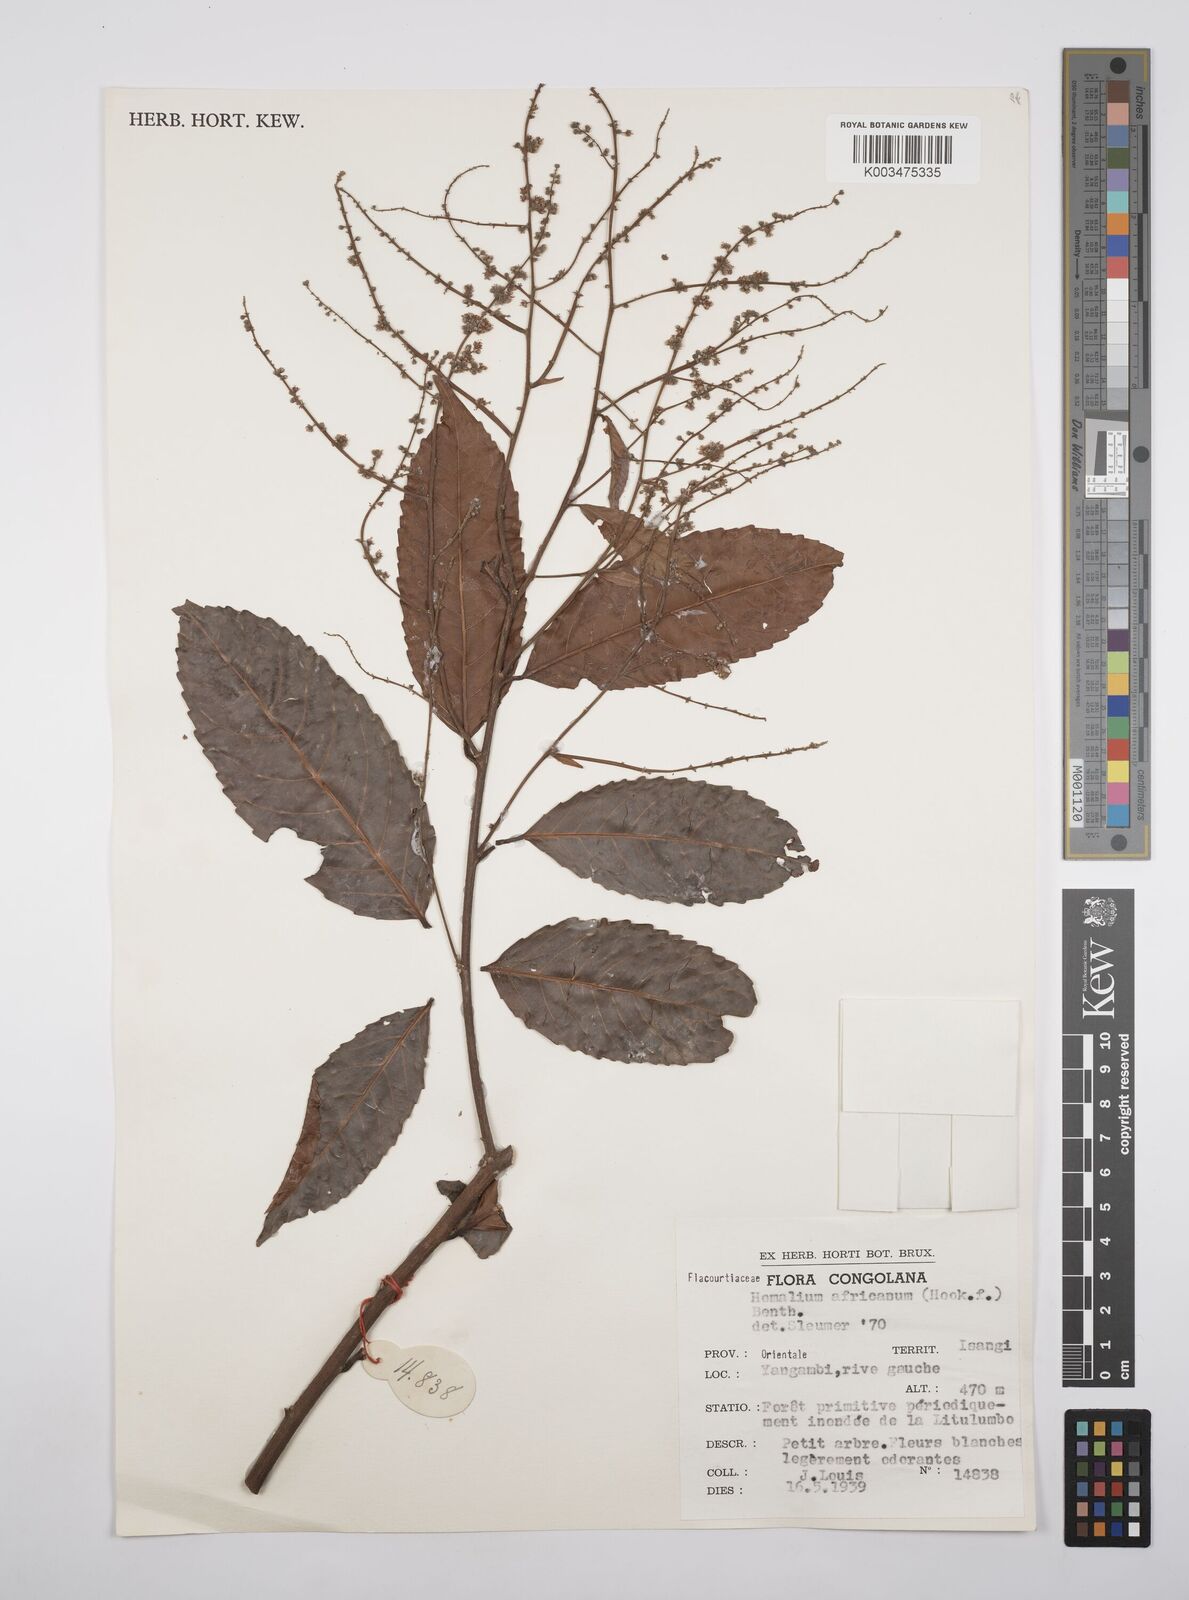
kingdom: Plantae
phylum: Tracheophyta
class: Magnoliopsida
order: Malpighiales
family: Salicaceae
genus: Homalium
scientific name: Homalium africanum
